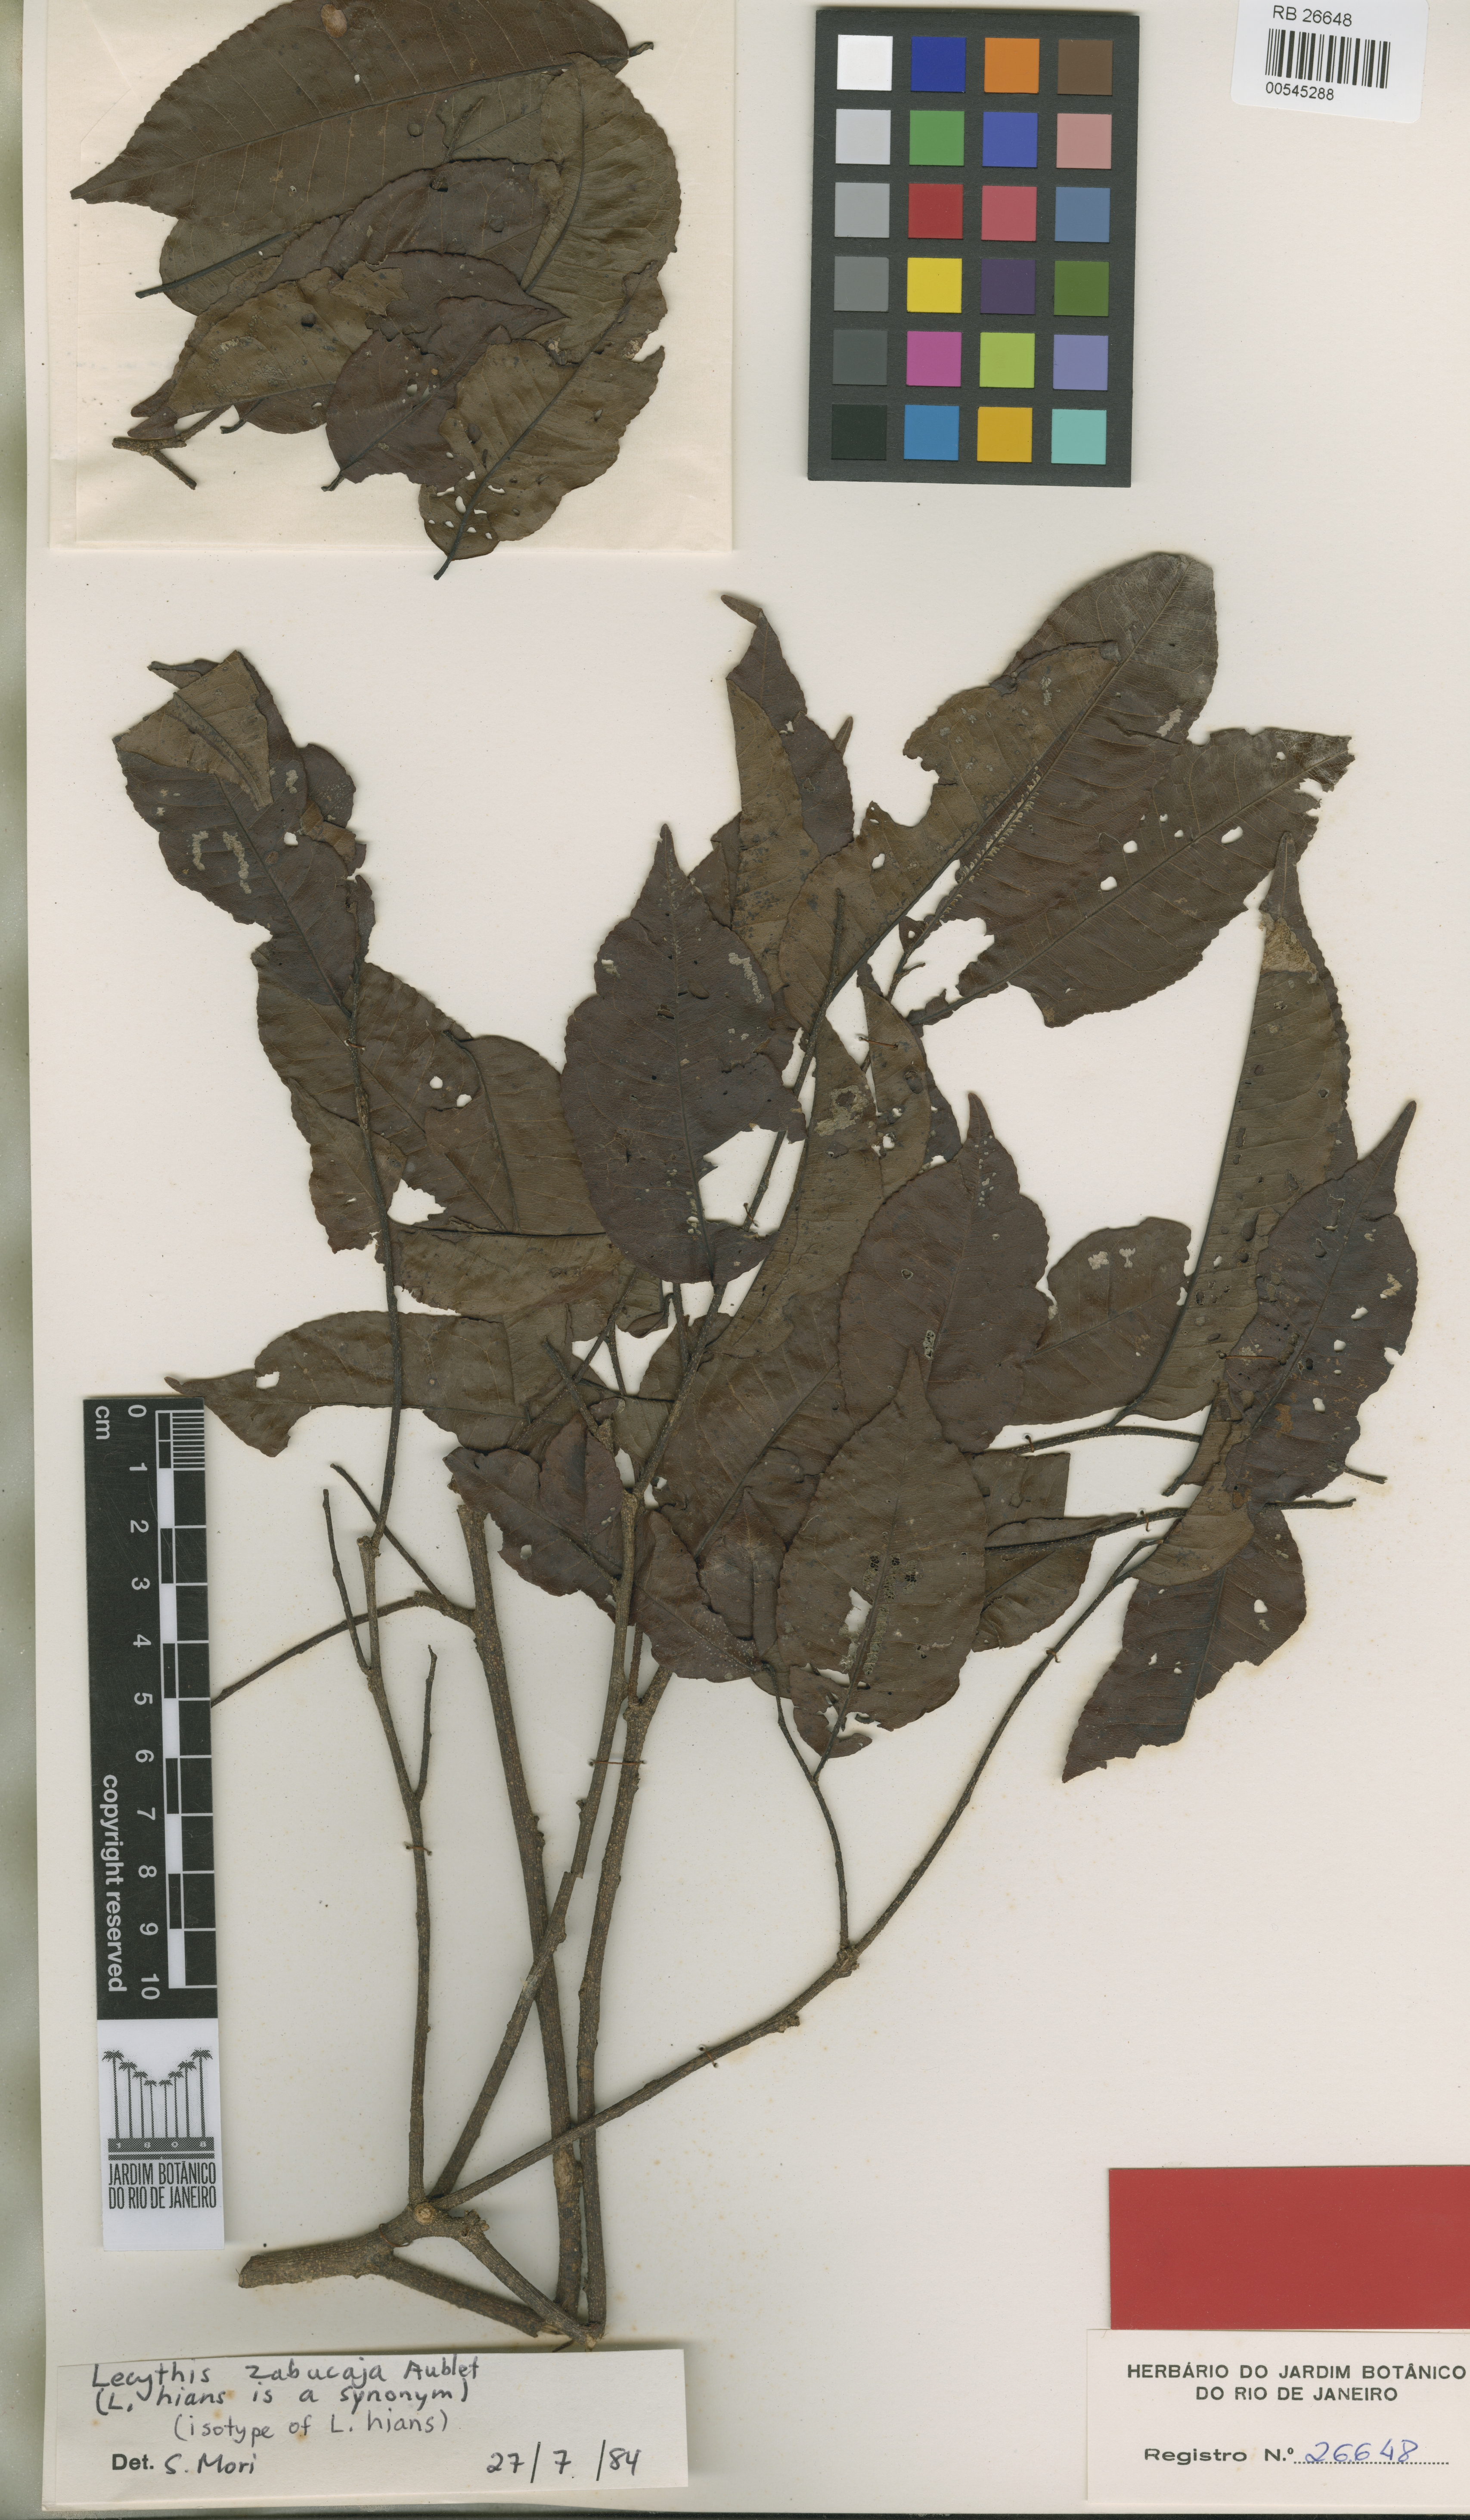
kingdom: Plantae
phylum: Tracheophyta
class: Magnoliopsida
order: Ericales
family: Lecythidaceae
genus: Lecythis
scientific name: Lecythis zabucajo
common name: Paradise-nut
